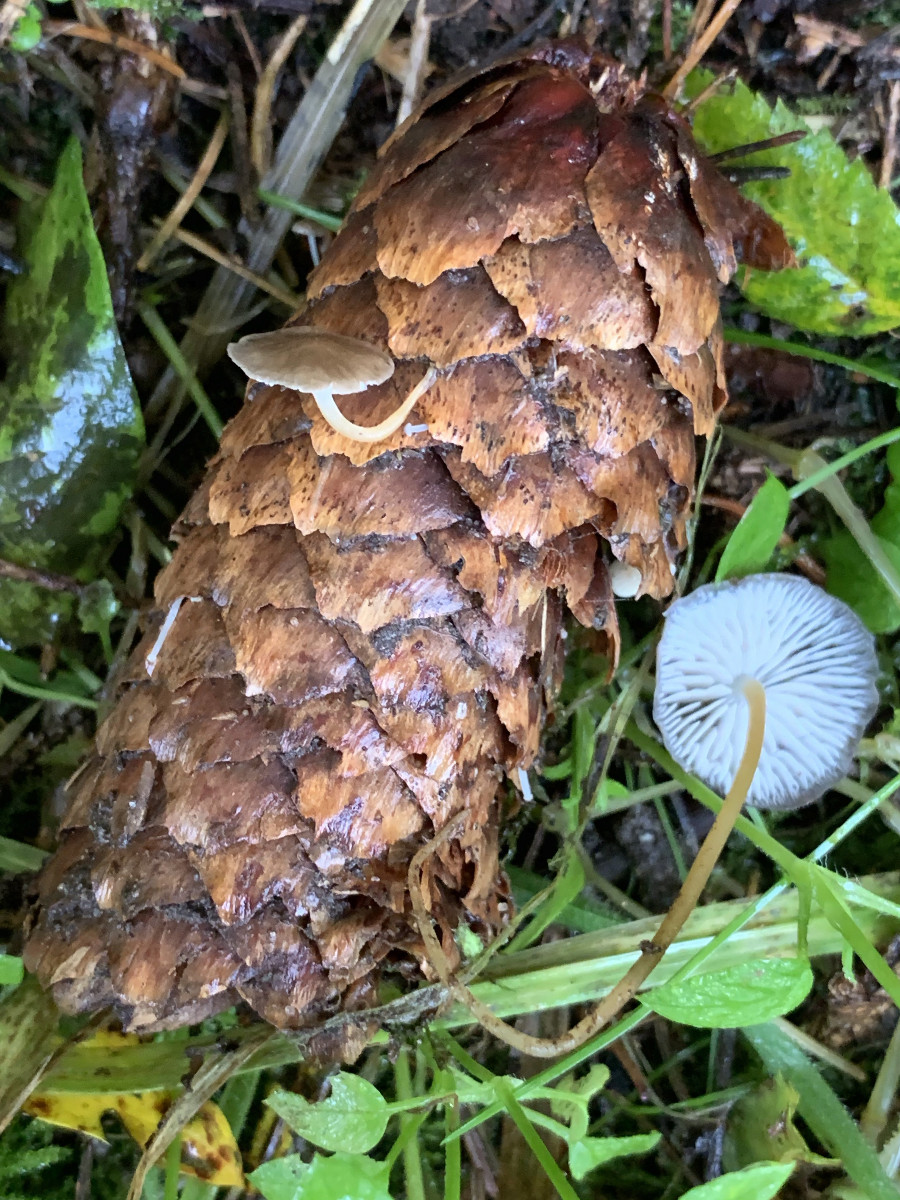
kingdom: Fungi
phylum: Basidiomycota
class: Agaricomycetes
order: Agaricales
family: Physalacriaceae
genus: Strobilurus
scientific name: Strobilurus esculentus
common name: gran-koglehat
